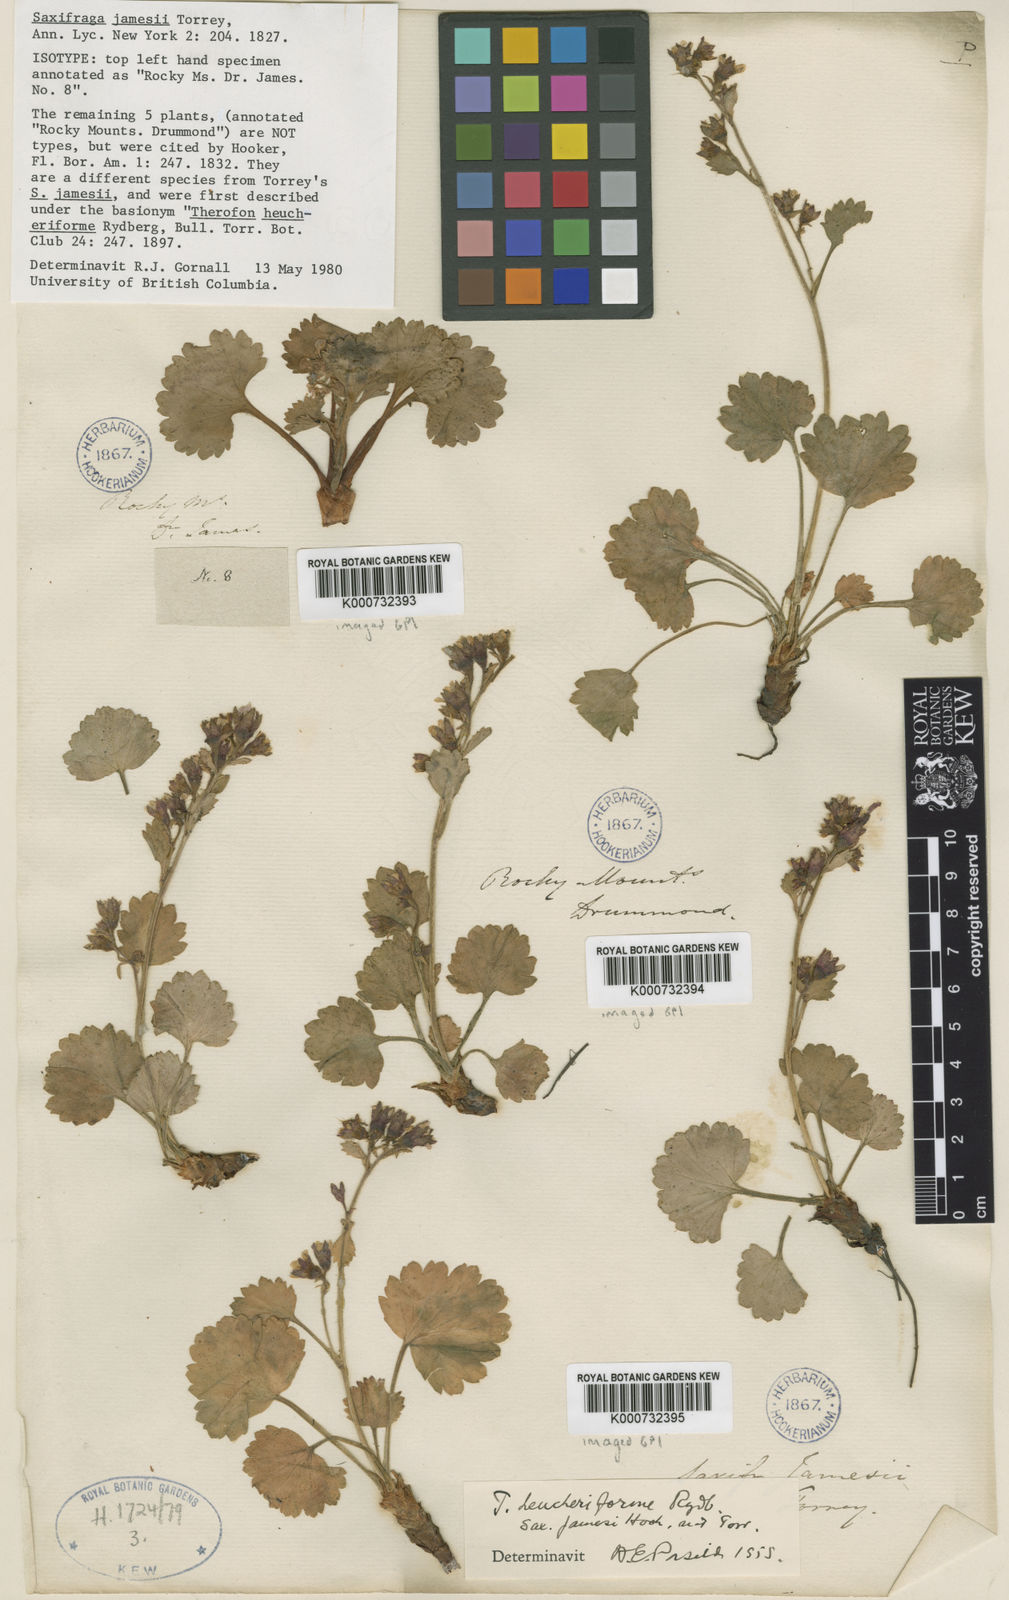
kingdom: Plantae
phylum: Tracheophyta
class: Magnoliopsida
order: Saxifragales
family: Saxifragaceae
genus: Telesonix
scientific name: Telesonix jamesii
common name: James's-saxifrage
